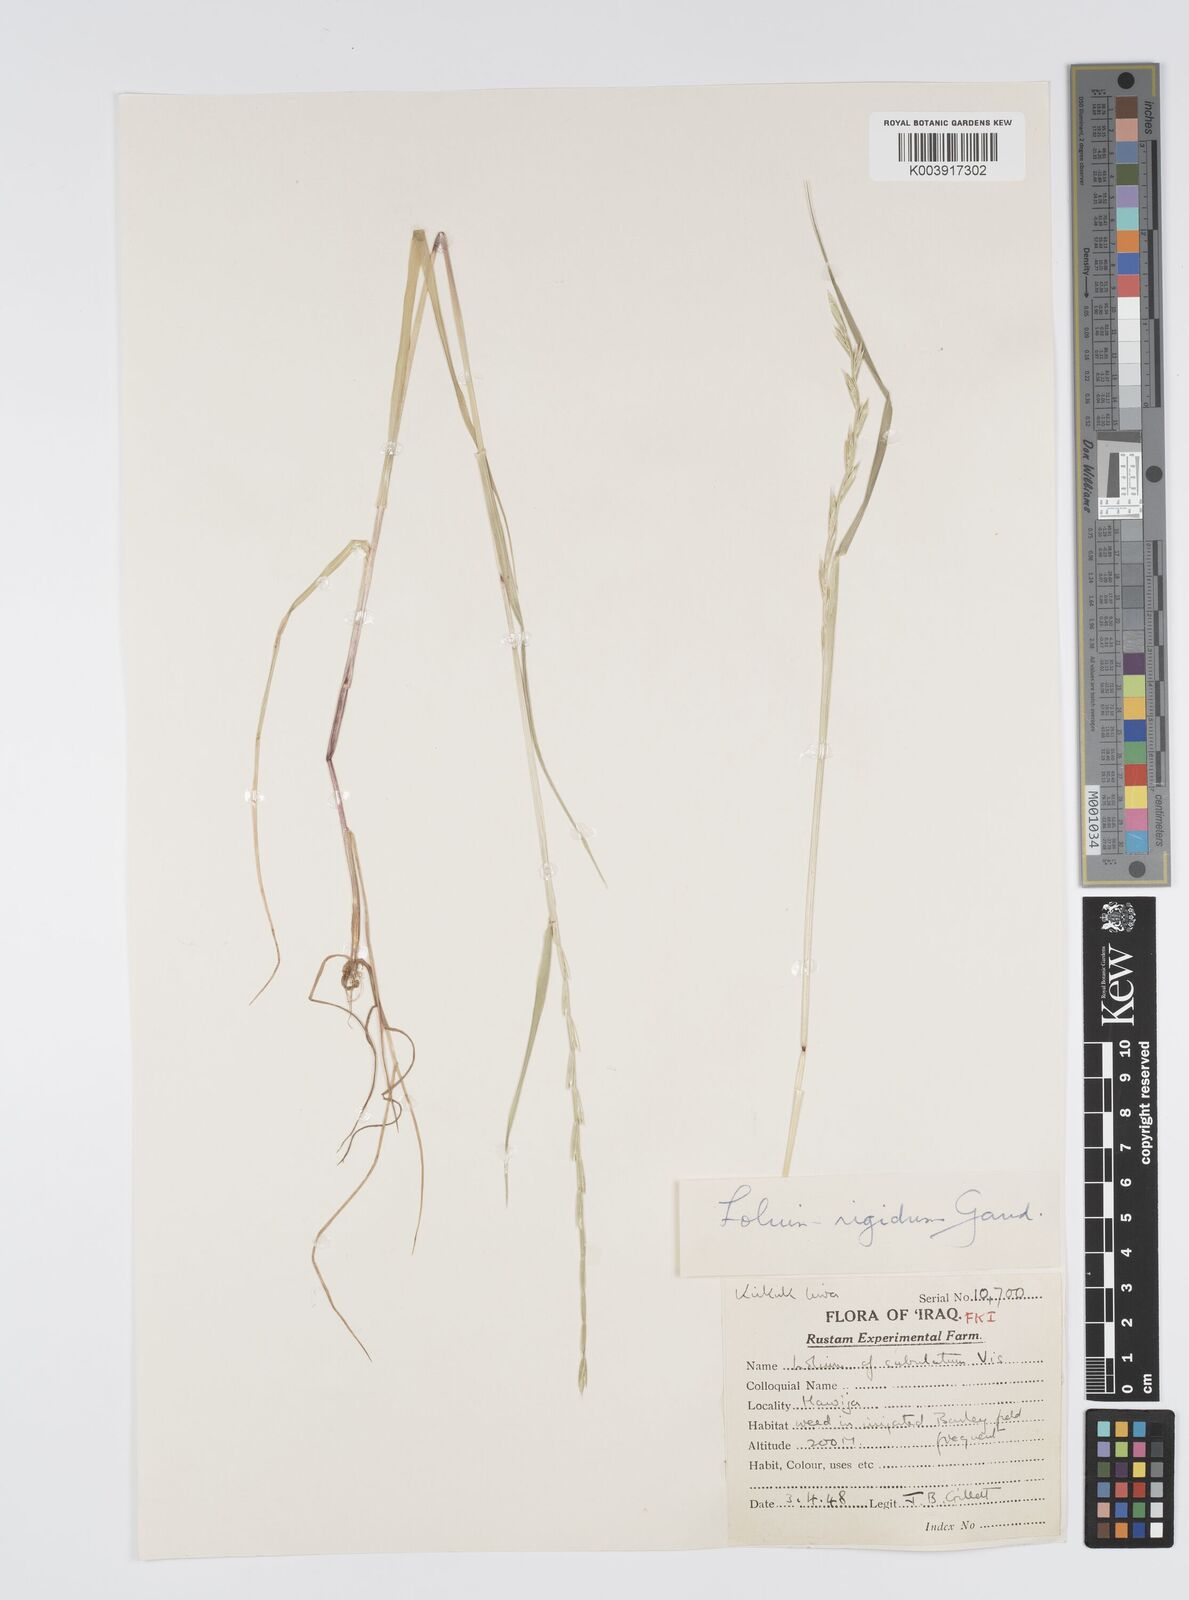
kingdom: Plantae
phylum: Tracheophyta
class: Liliopsida
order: Poales
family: Poaceae
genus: Lolium
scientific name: Lolium rigidum
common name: Wimmera ryegrass
